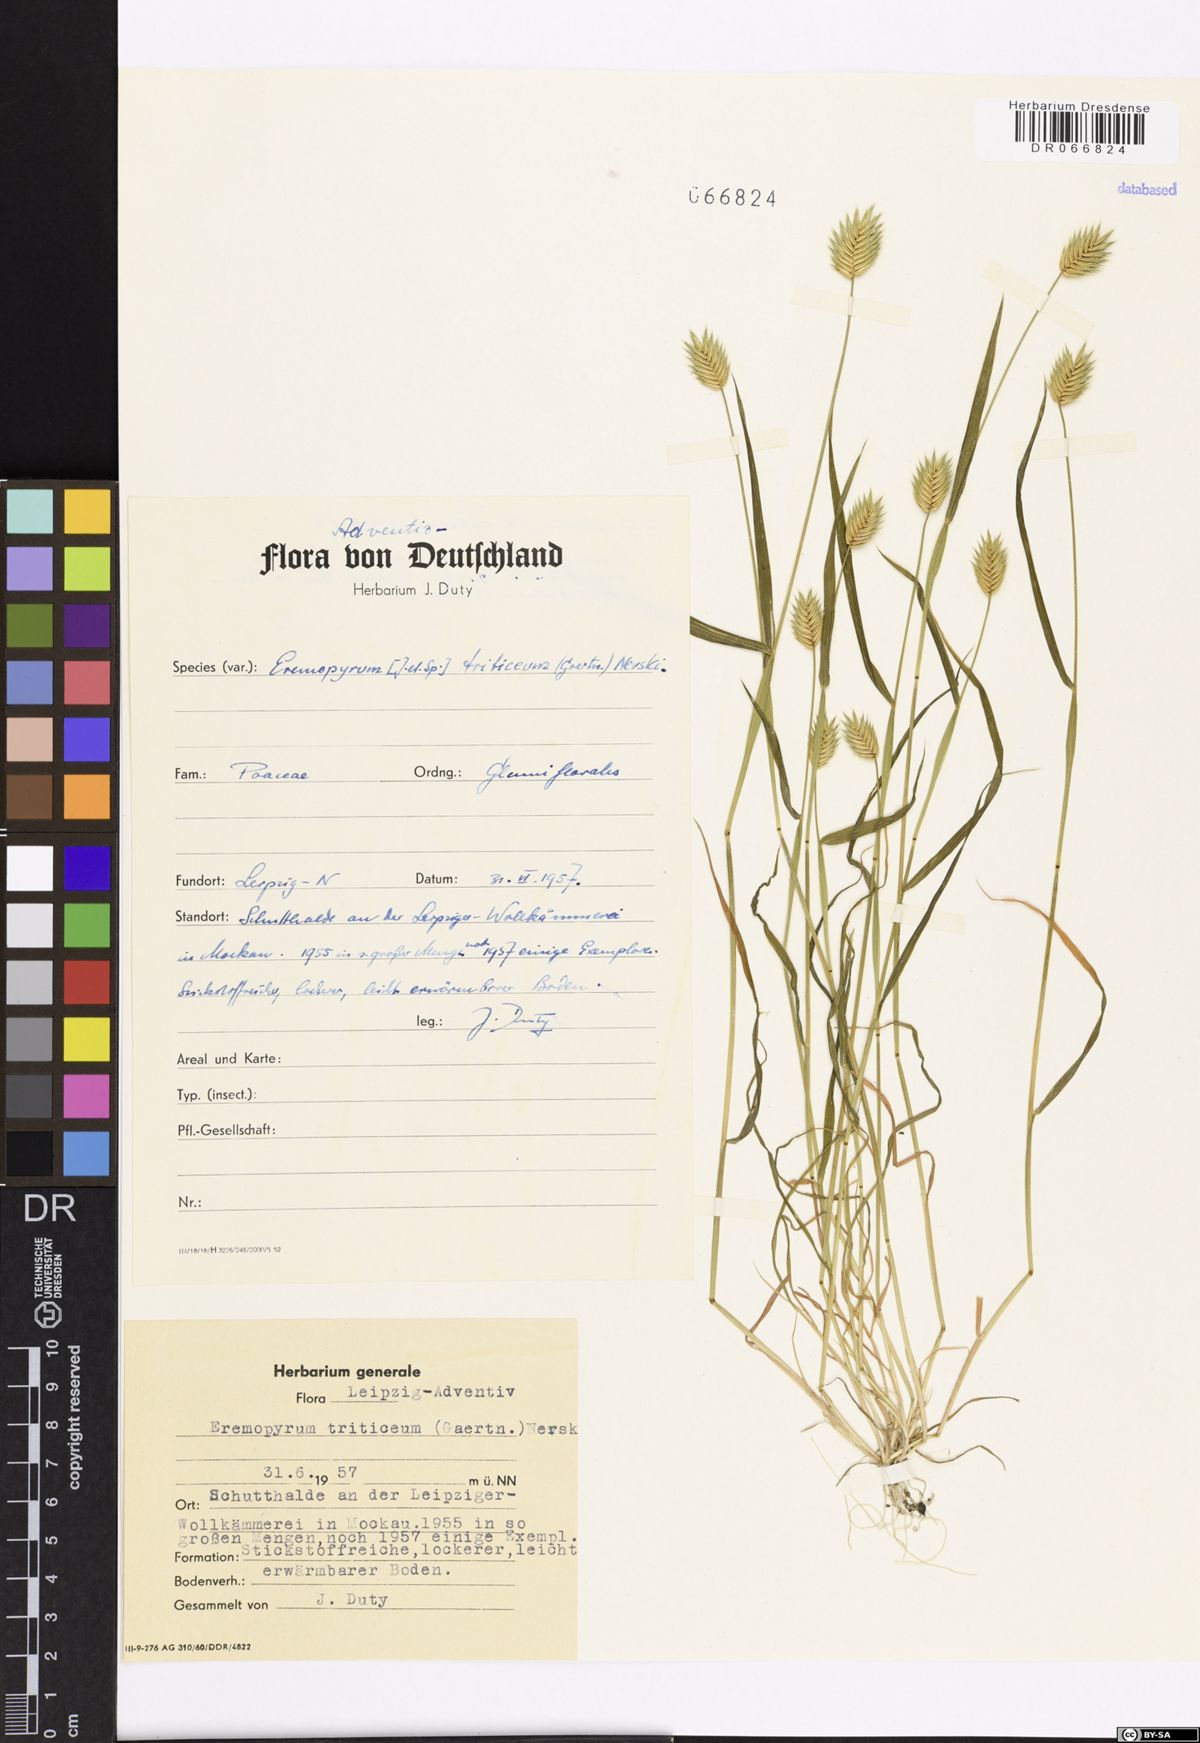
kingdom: Plantae
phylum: Tracheophyta
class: Liliopsida
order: Poales
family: Poaceae
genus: Eremopyrum
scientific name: Eremopyrum triticeum
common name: Annual wheatgrass
